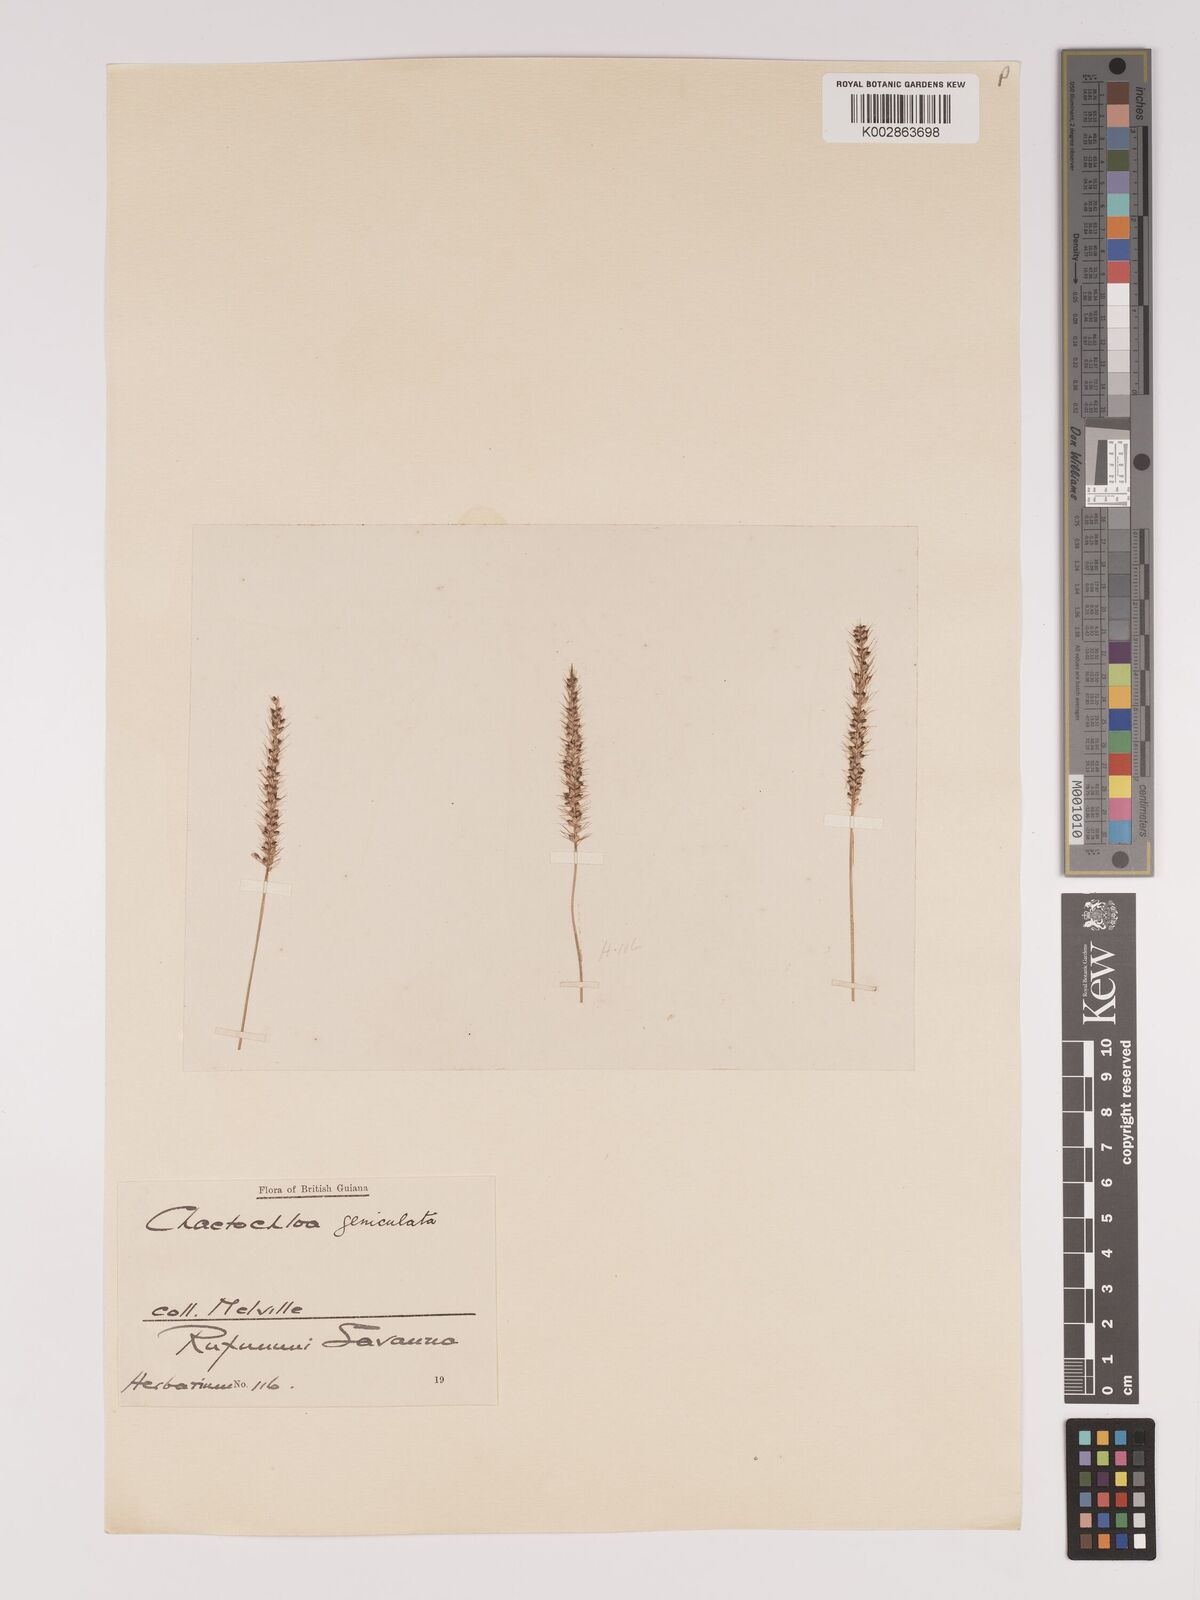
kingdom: Plantae
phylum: Tracheophyta
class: Liliopsida
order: Poales
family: Poaceae
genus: Setaria
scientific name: Setaria parviflora
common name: Knotroot bristle-grass
